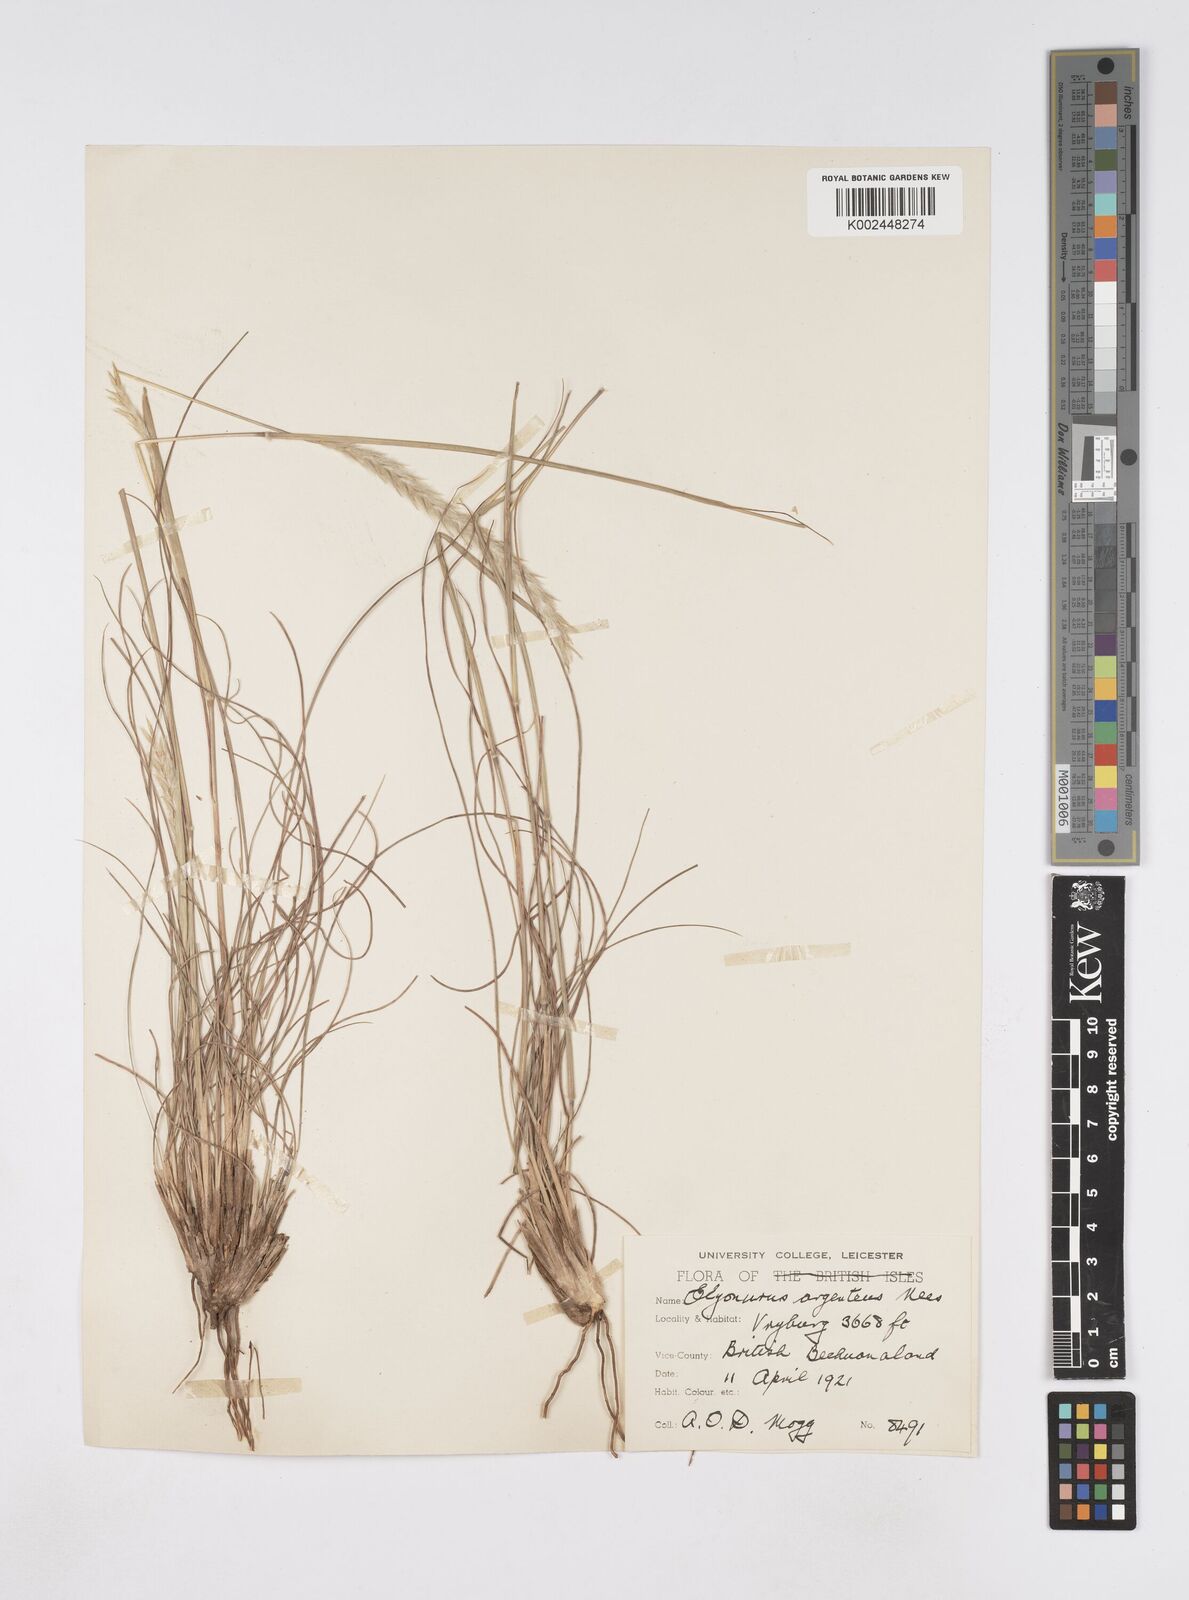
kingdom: Plantae
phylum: Tracheophyta
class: Liliopsida
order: Poales
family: Poaceae
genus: Elionurus
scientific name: Elionurus muticus
